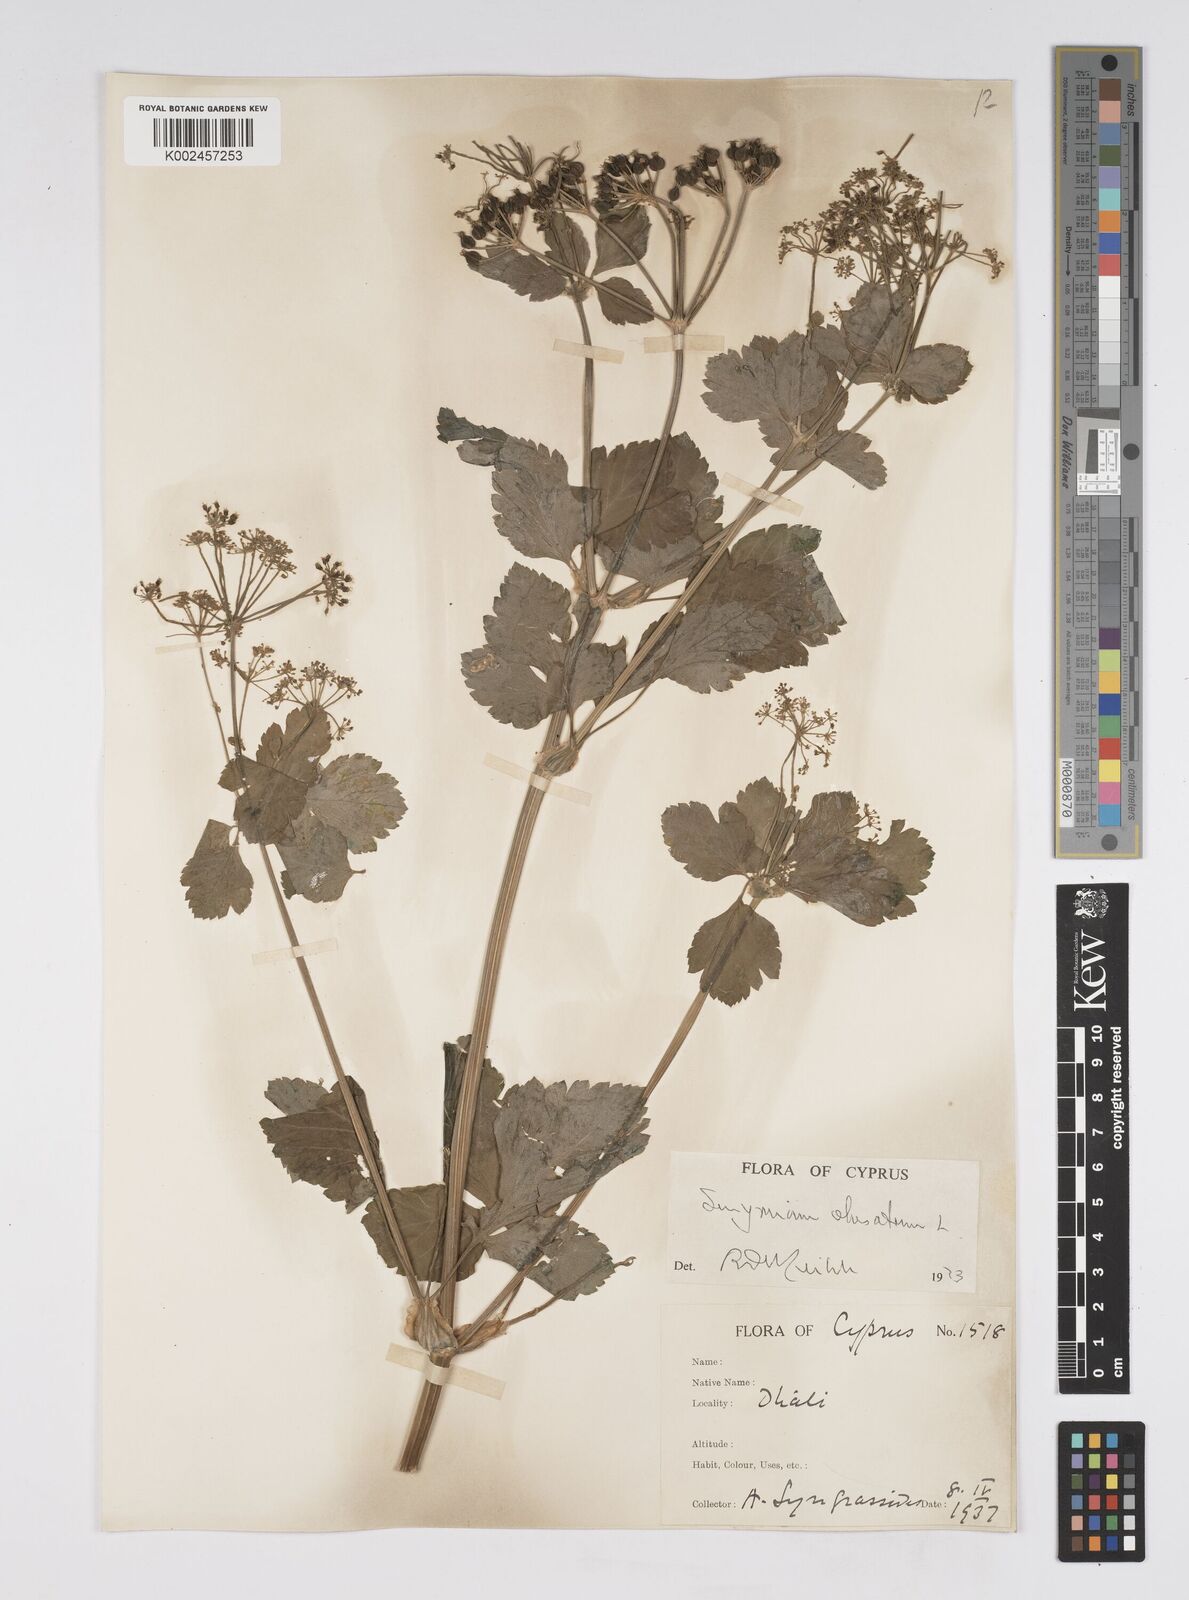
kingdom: Plantae
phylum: Tracheophyta
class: Magnoliopsida
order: Apiales
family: Apiaceae
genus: Smyrnium
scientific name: Smyrnium olusatrum
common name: Alexanders
